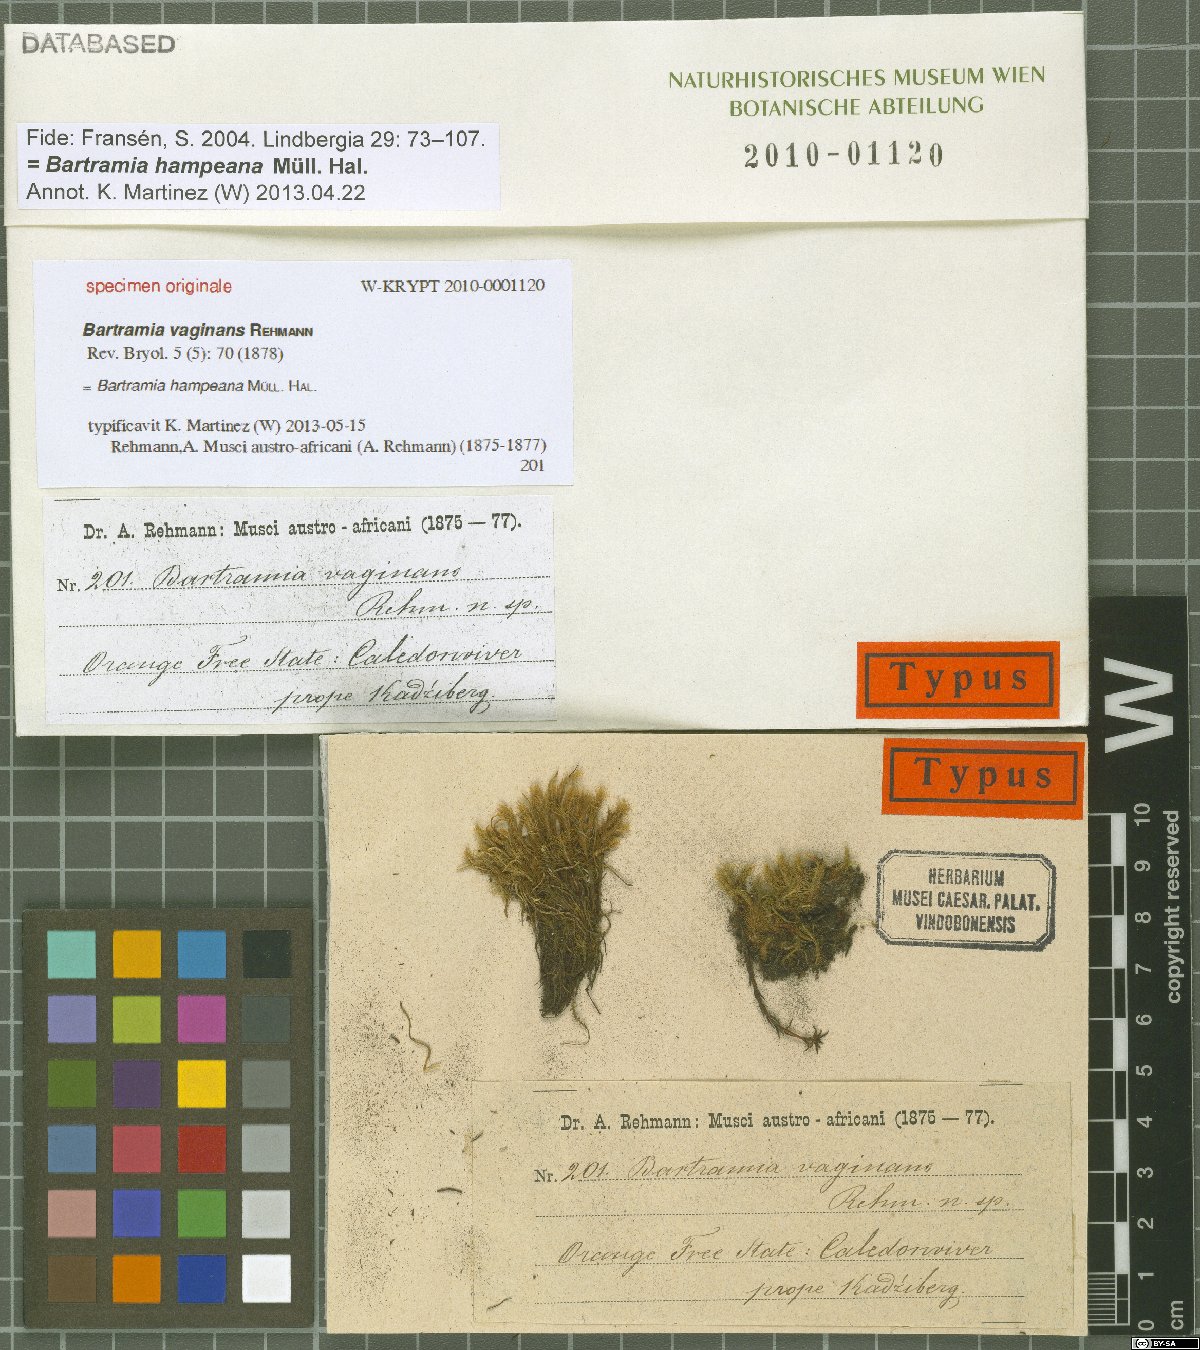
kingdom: Plantae
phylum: Bryophyta
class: Bryopsida
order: Bartramiales
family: Bartramiaceae
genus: Philonotis
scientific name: Philonotis vagans
